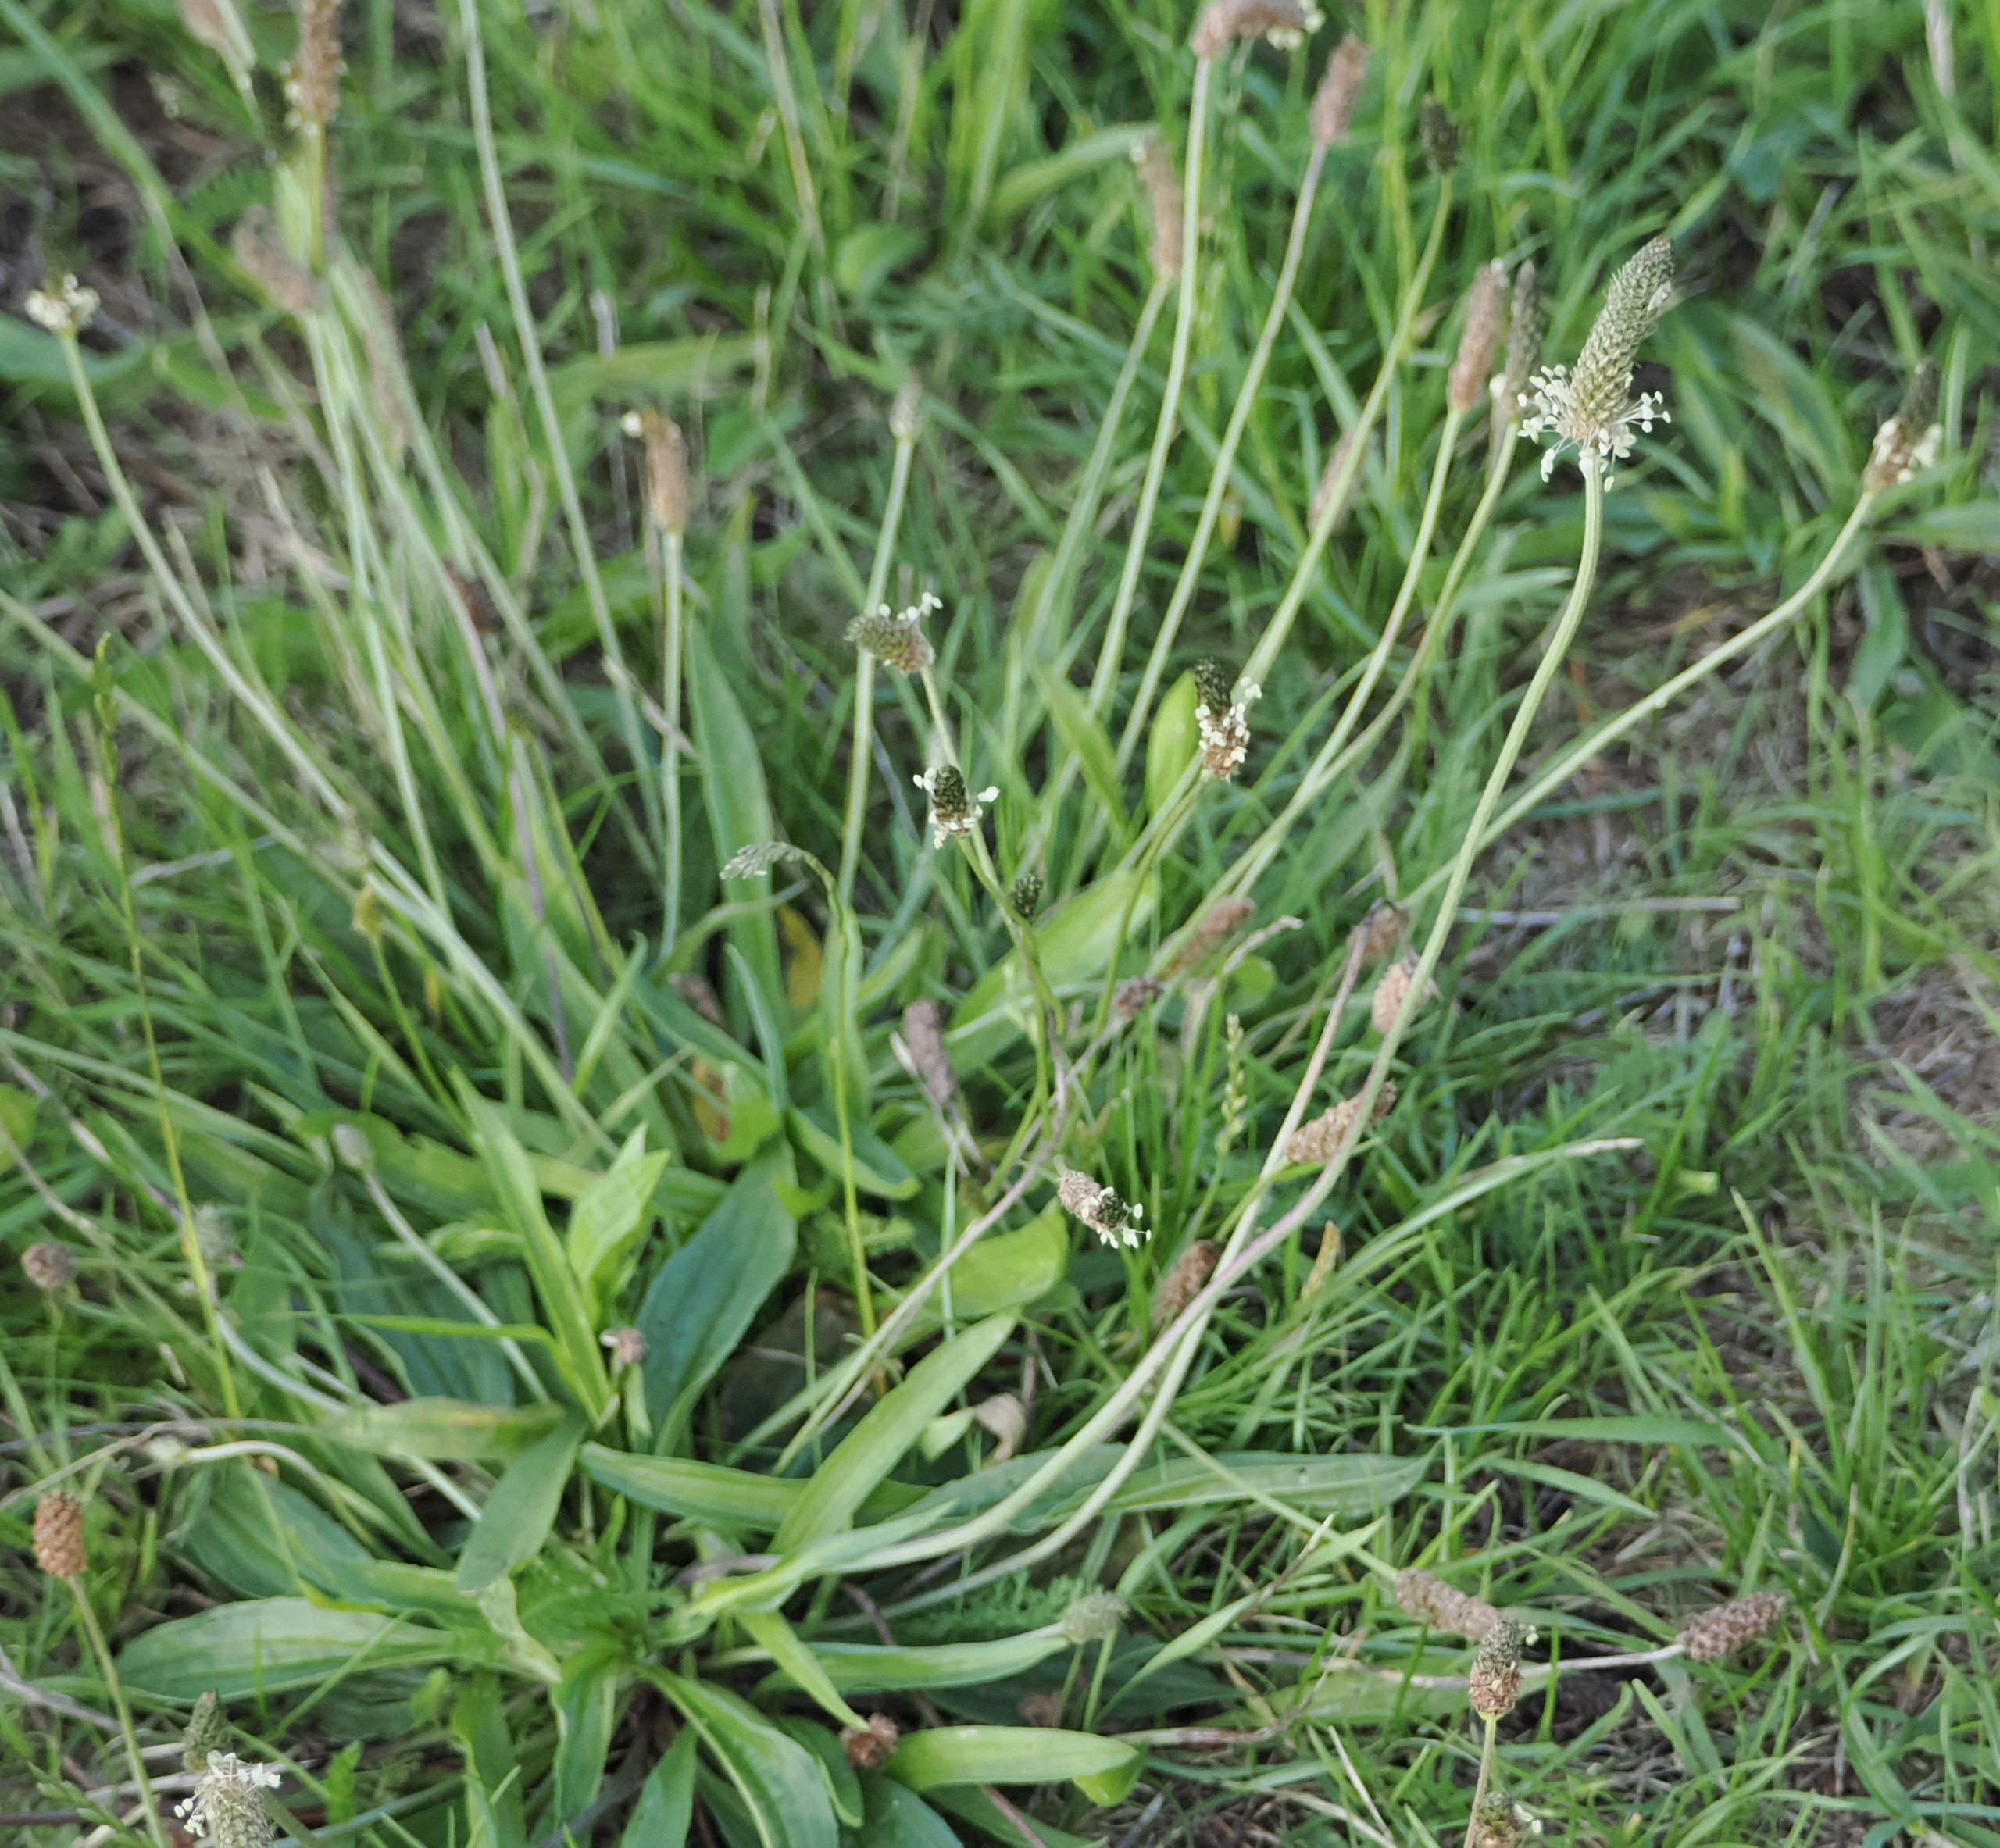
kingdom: Plantae
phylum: Tracheophyta
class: Magnoliopsida
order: Lamiales
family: Plantaginaceae
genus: Plantago
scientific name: Plantago lanceolata
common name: Lancet-vejbred
